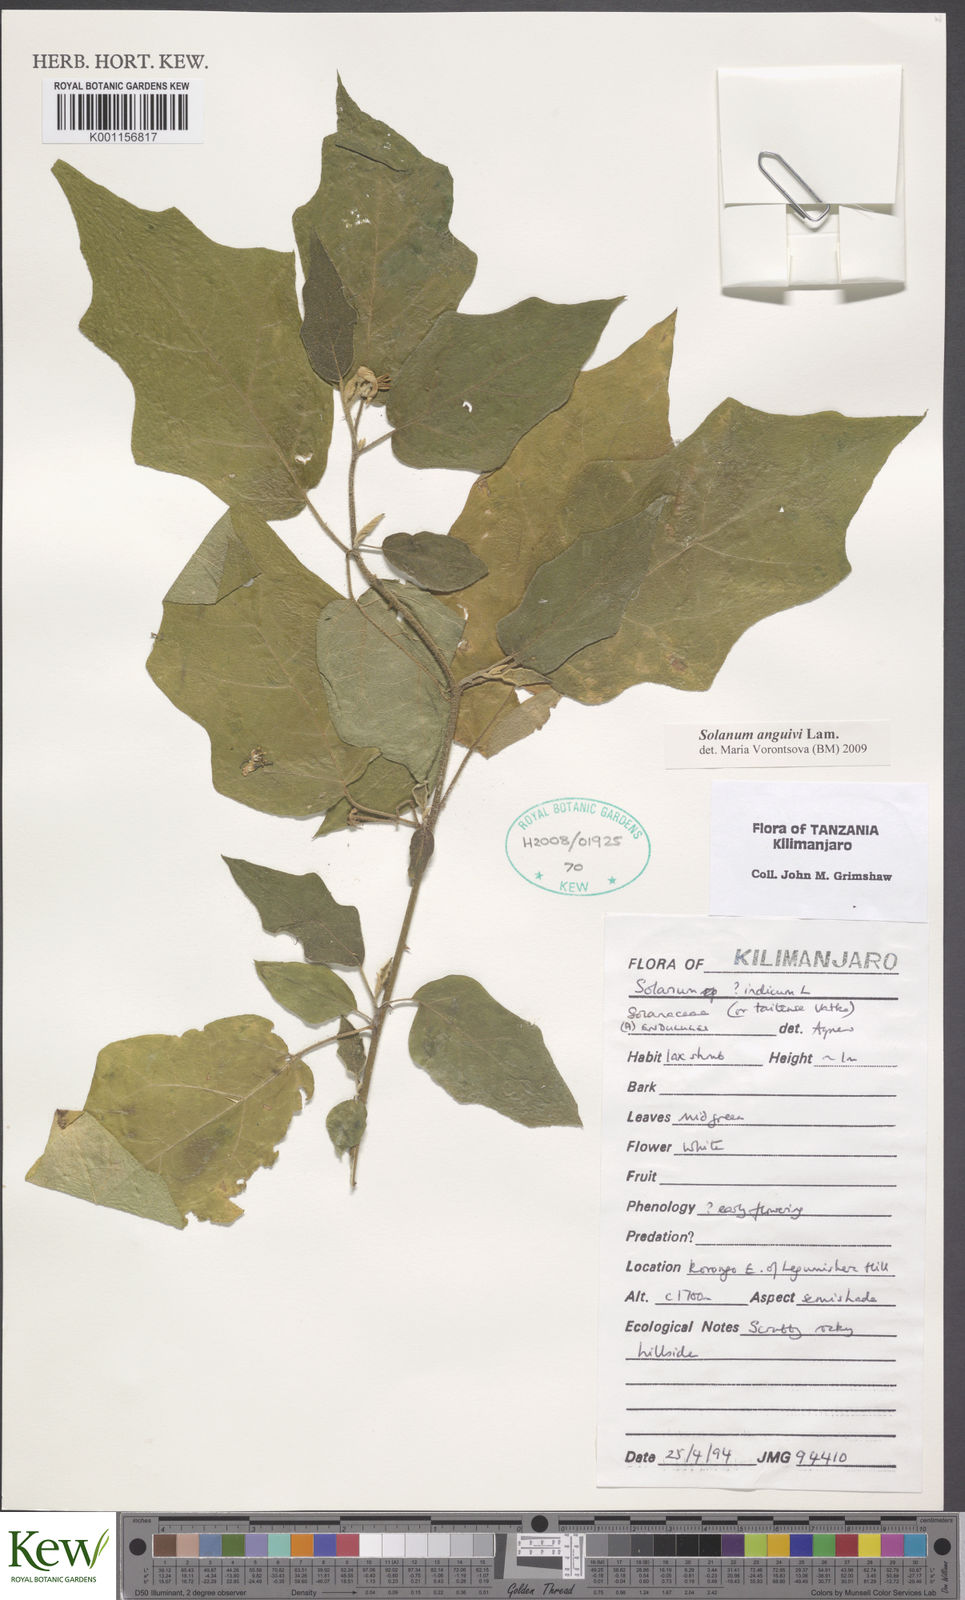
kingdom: Plantae
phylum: Tracheophyta
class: Magnoliopsida
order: Solanales
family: Solanaceae
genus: Solanum
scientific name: Solanum anguivi
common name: Forest bitterberry
